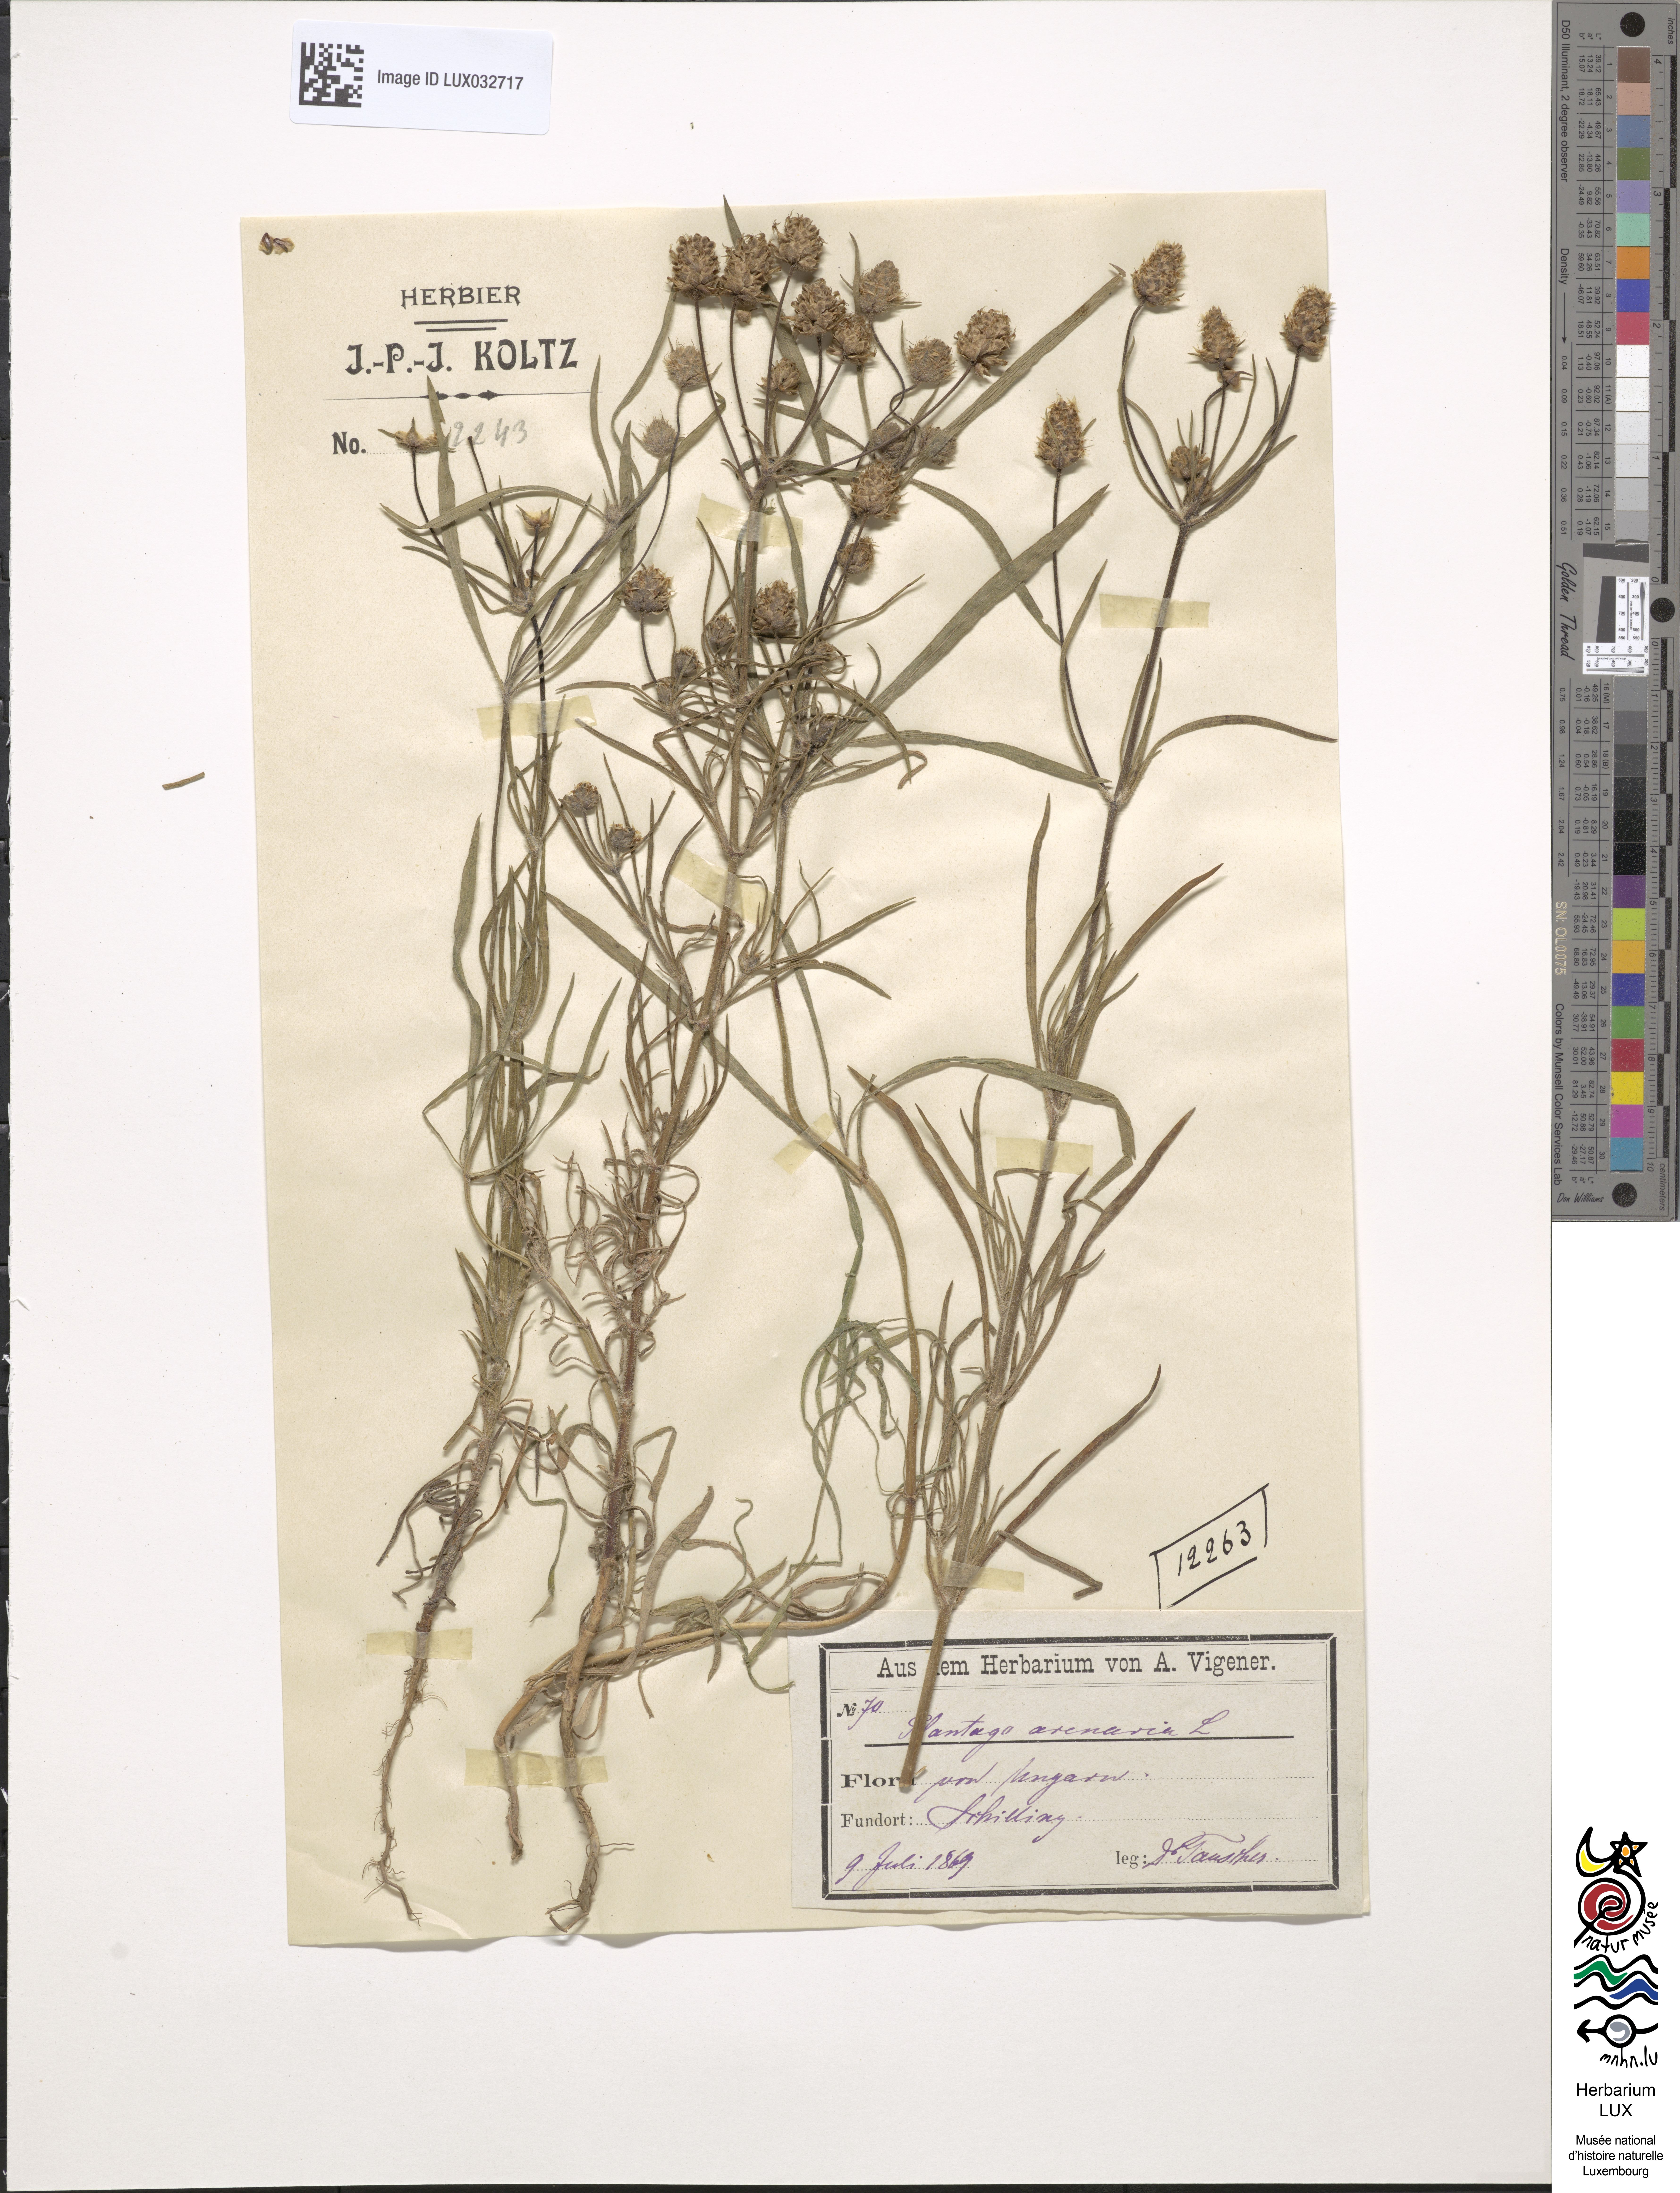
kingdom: Plantae
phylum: Tracheophyta
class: Magnoliopsida
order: Lamiales
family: Plantaginaceae
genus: Plantago
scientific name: Plantago arenaria
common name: Branched plantain
